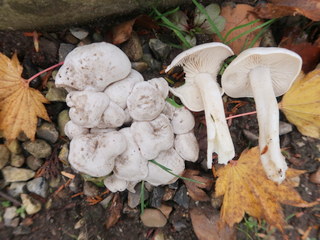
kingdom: Fungi
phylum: Basidiomycota
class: Agaricomycetes
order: Agaricales
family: Tricholomataceae
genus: Leucocybe
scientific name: Leucocybe connata
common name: knippe-tragthat
